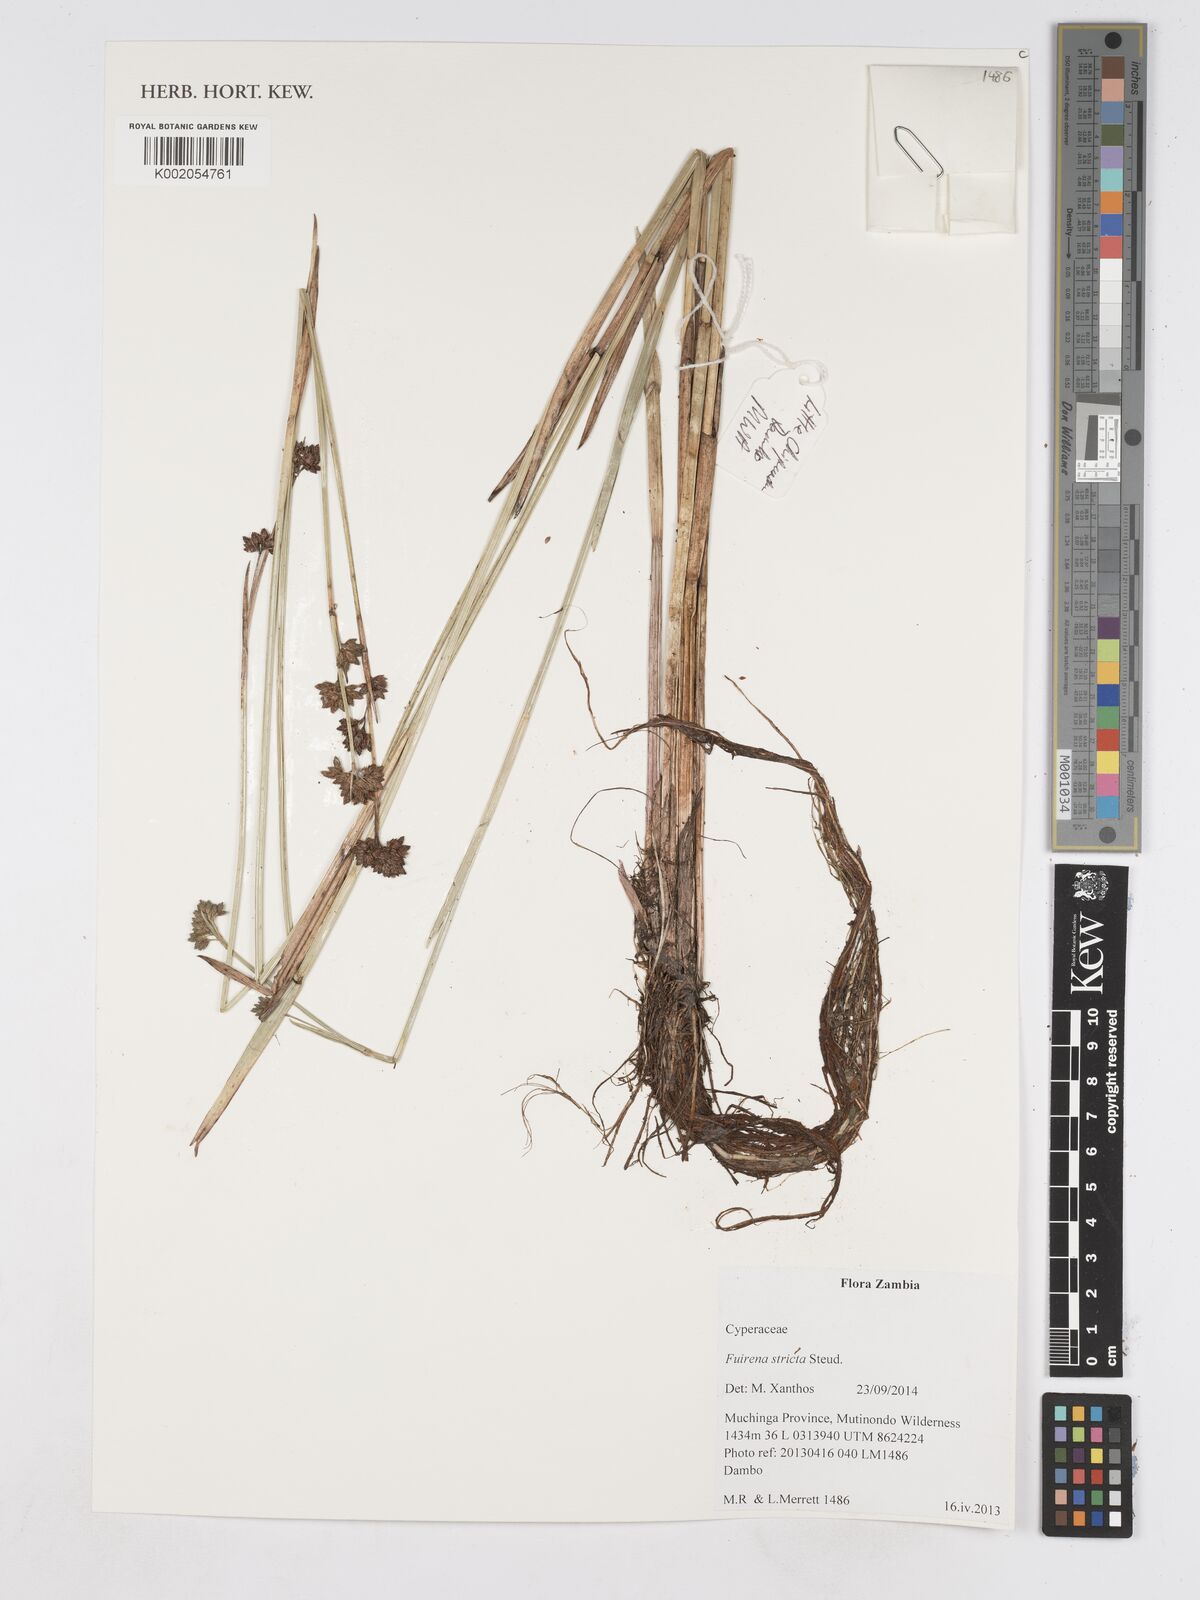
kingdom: Plantae
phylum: Tracheophyta
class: Liliopsida
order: Poales
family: Cyperaceae
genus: Fuirena
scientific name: Fuirena stricta
